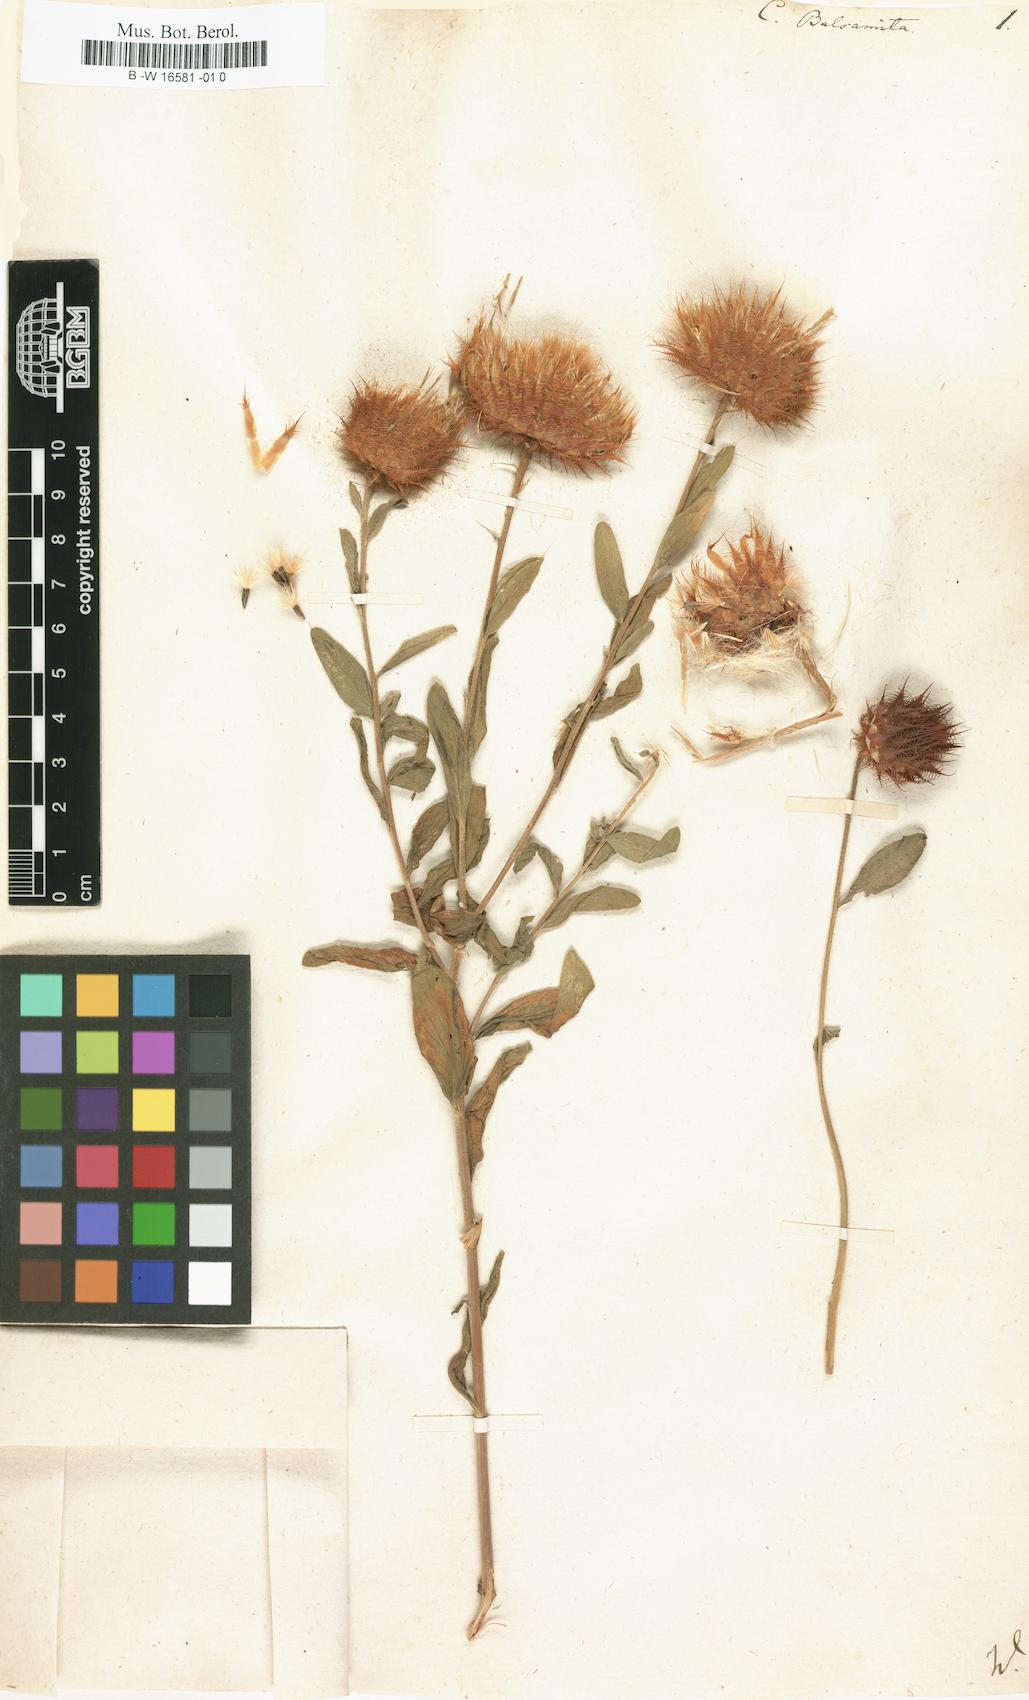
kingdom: Plantae
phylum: Tracheophyta
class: Magnoliopsida
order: Asterales
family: Asteraceae
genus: Stizolophus
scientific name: Stizolophus balsamita
